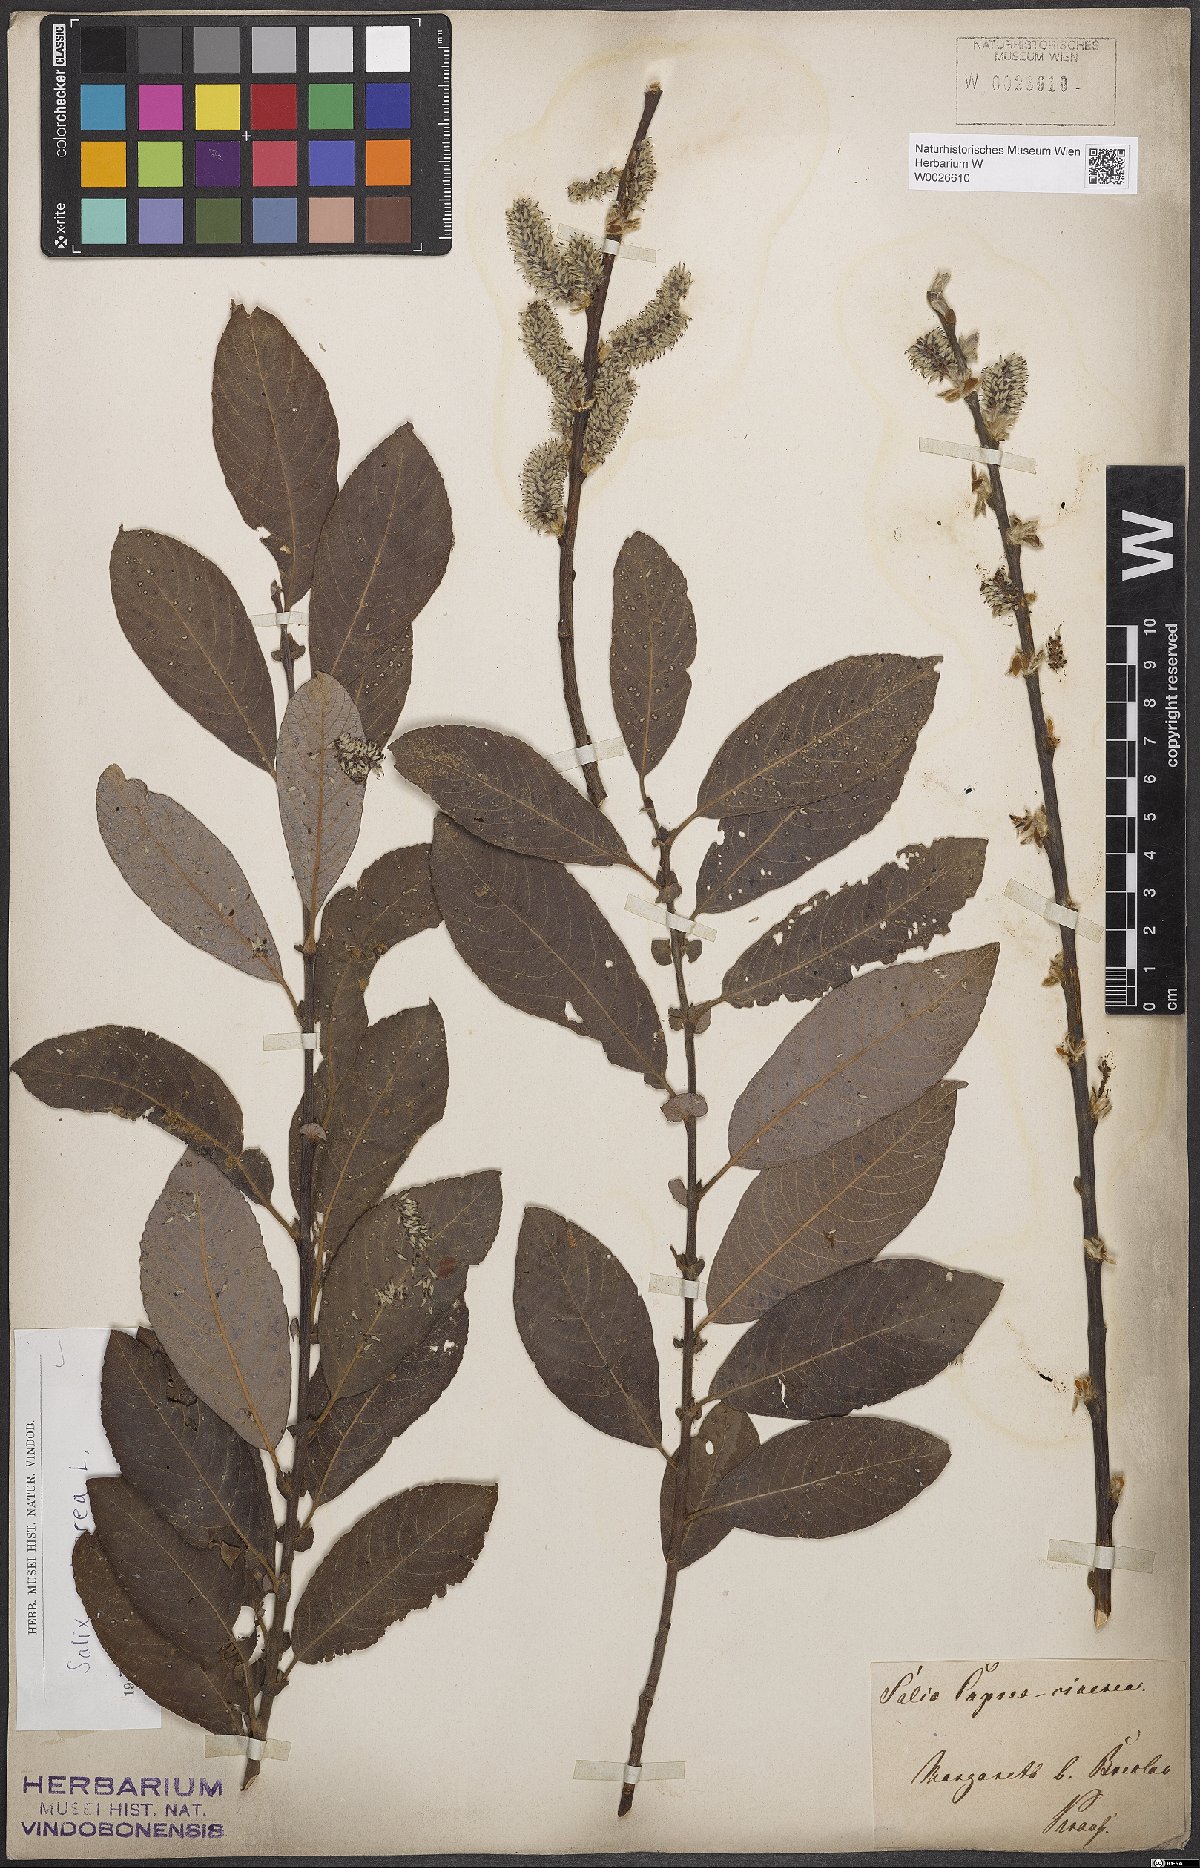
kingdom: Plantae
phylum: Tracheophyta
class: Magnoliopsida
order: Malpighiales
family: Salicaceae
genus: Salix
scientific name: Salix cinerea
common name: Common sallow
